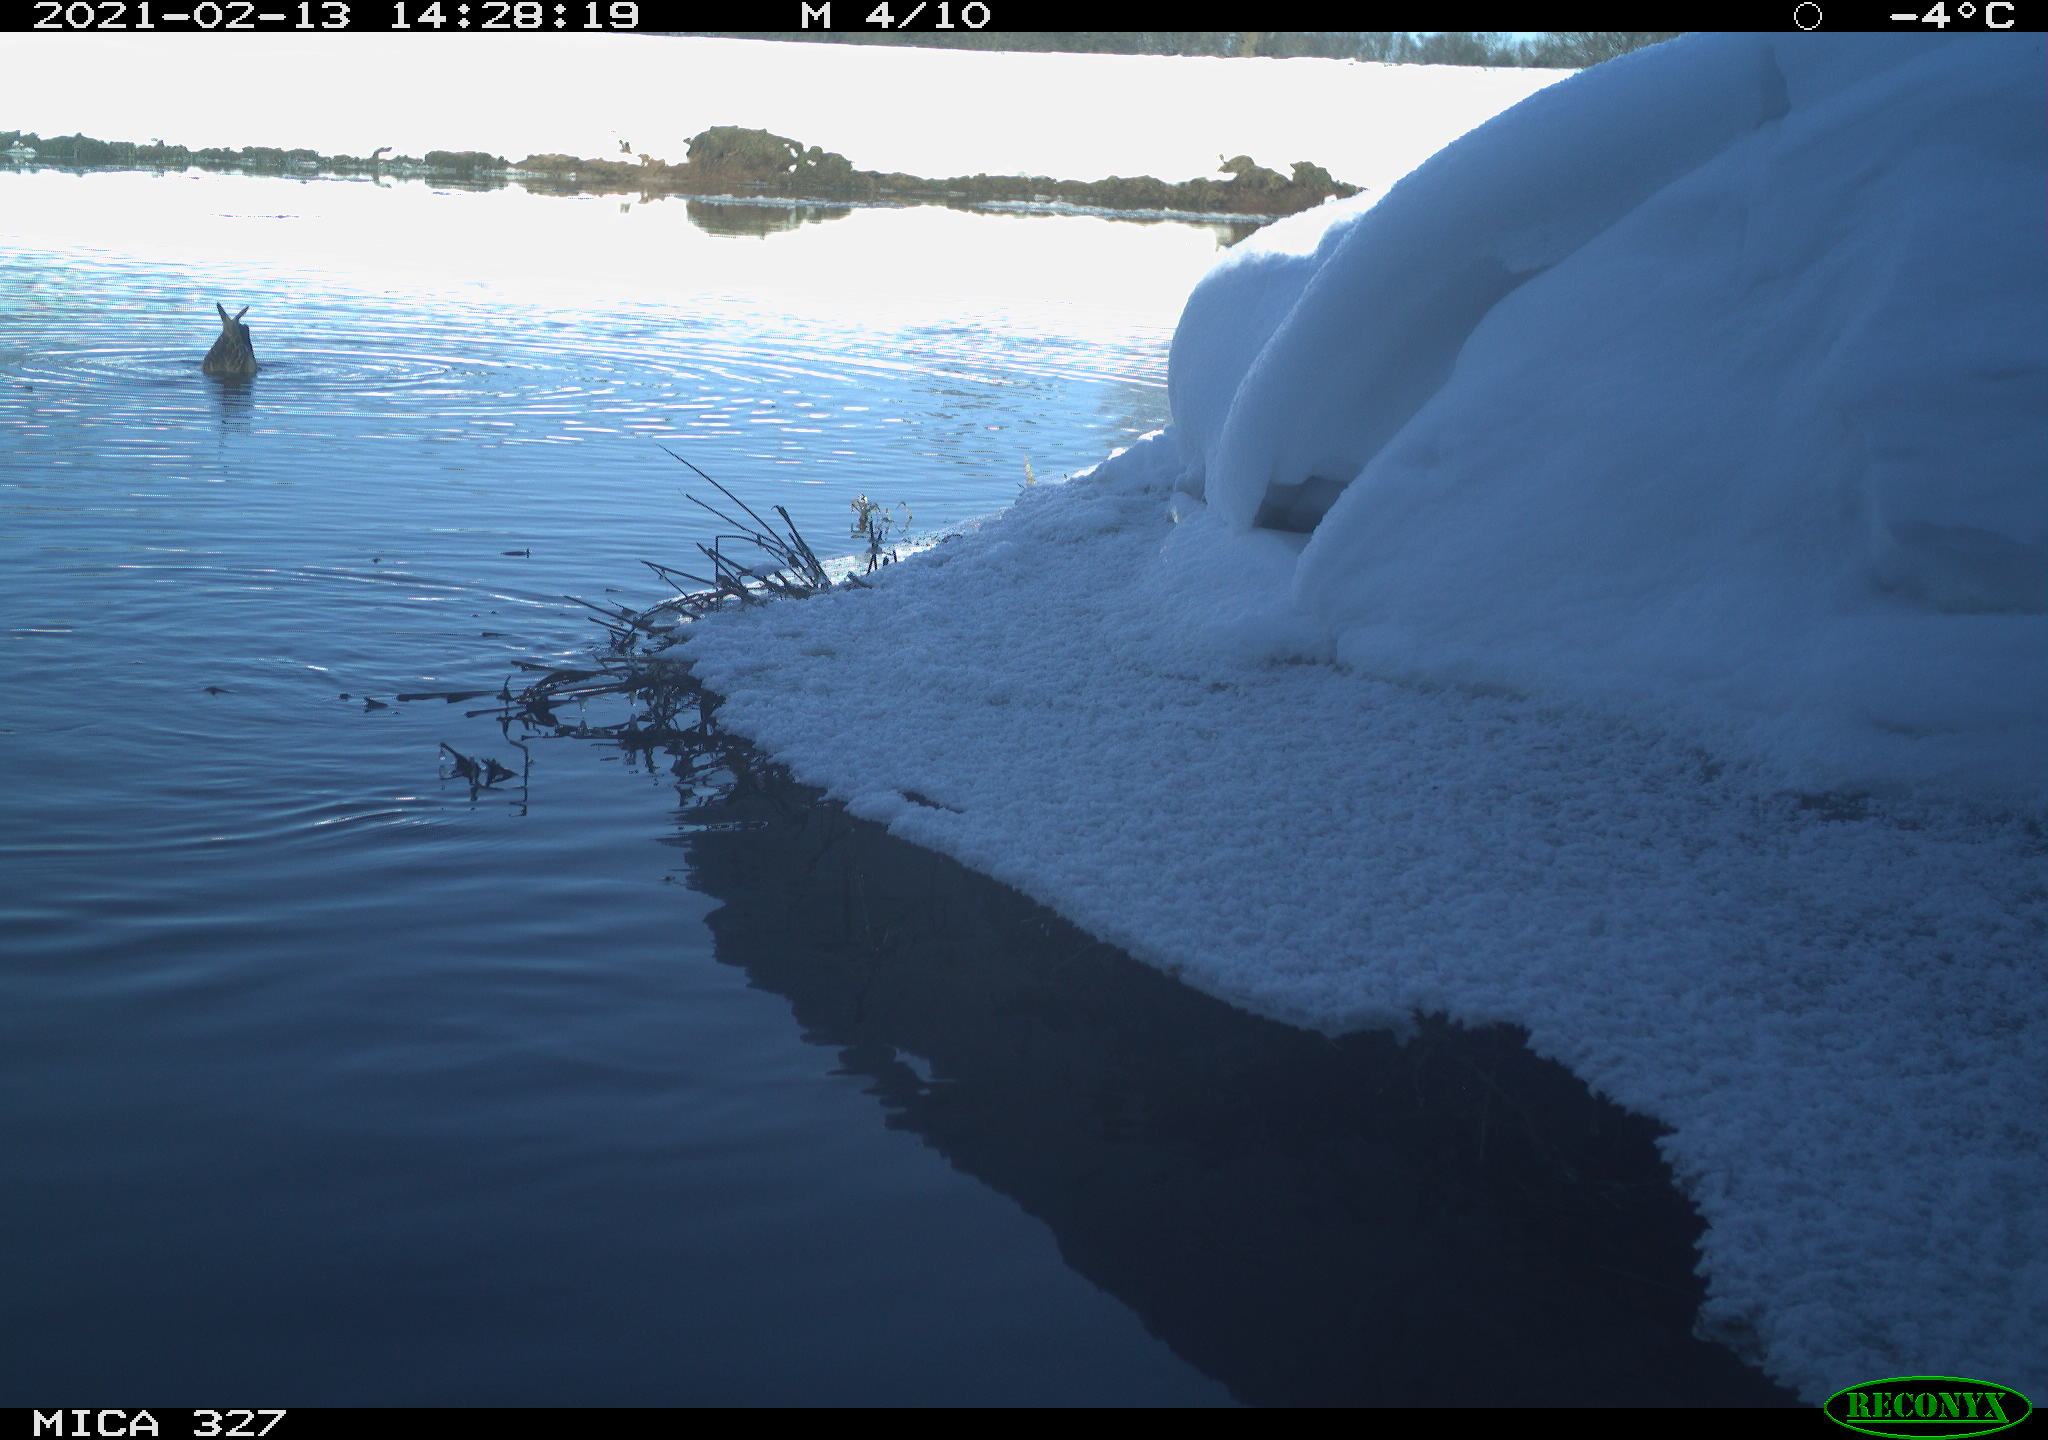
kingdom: Animalia
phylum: Chordata
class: Aves
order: Anseriformes
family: Anatidae
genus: Aythya
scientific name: Aythya fuligula
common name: Tufted duck
